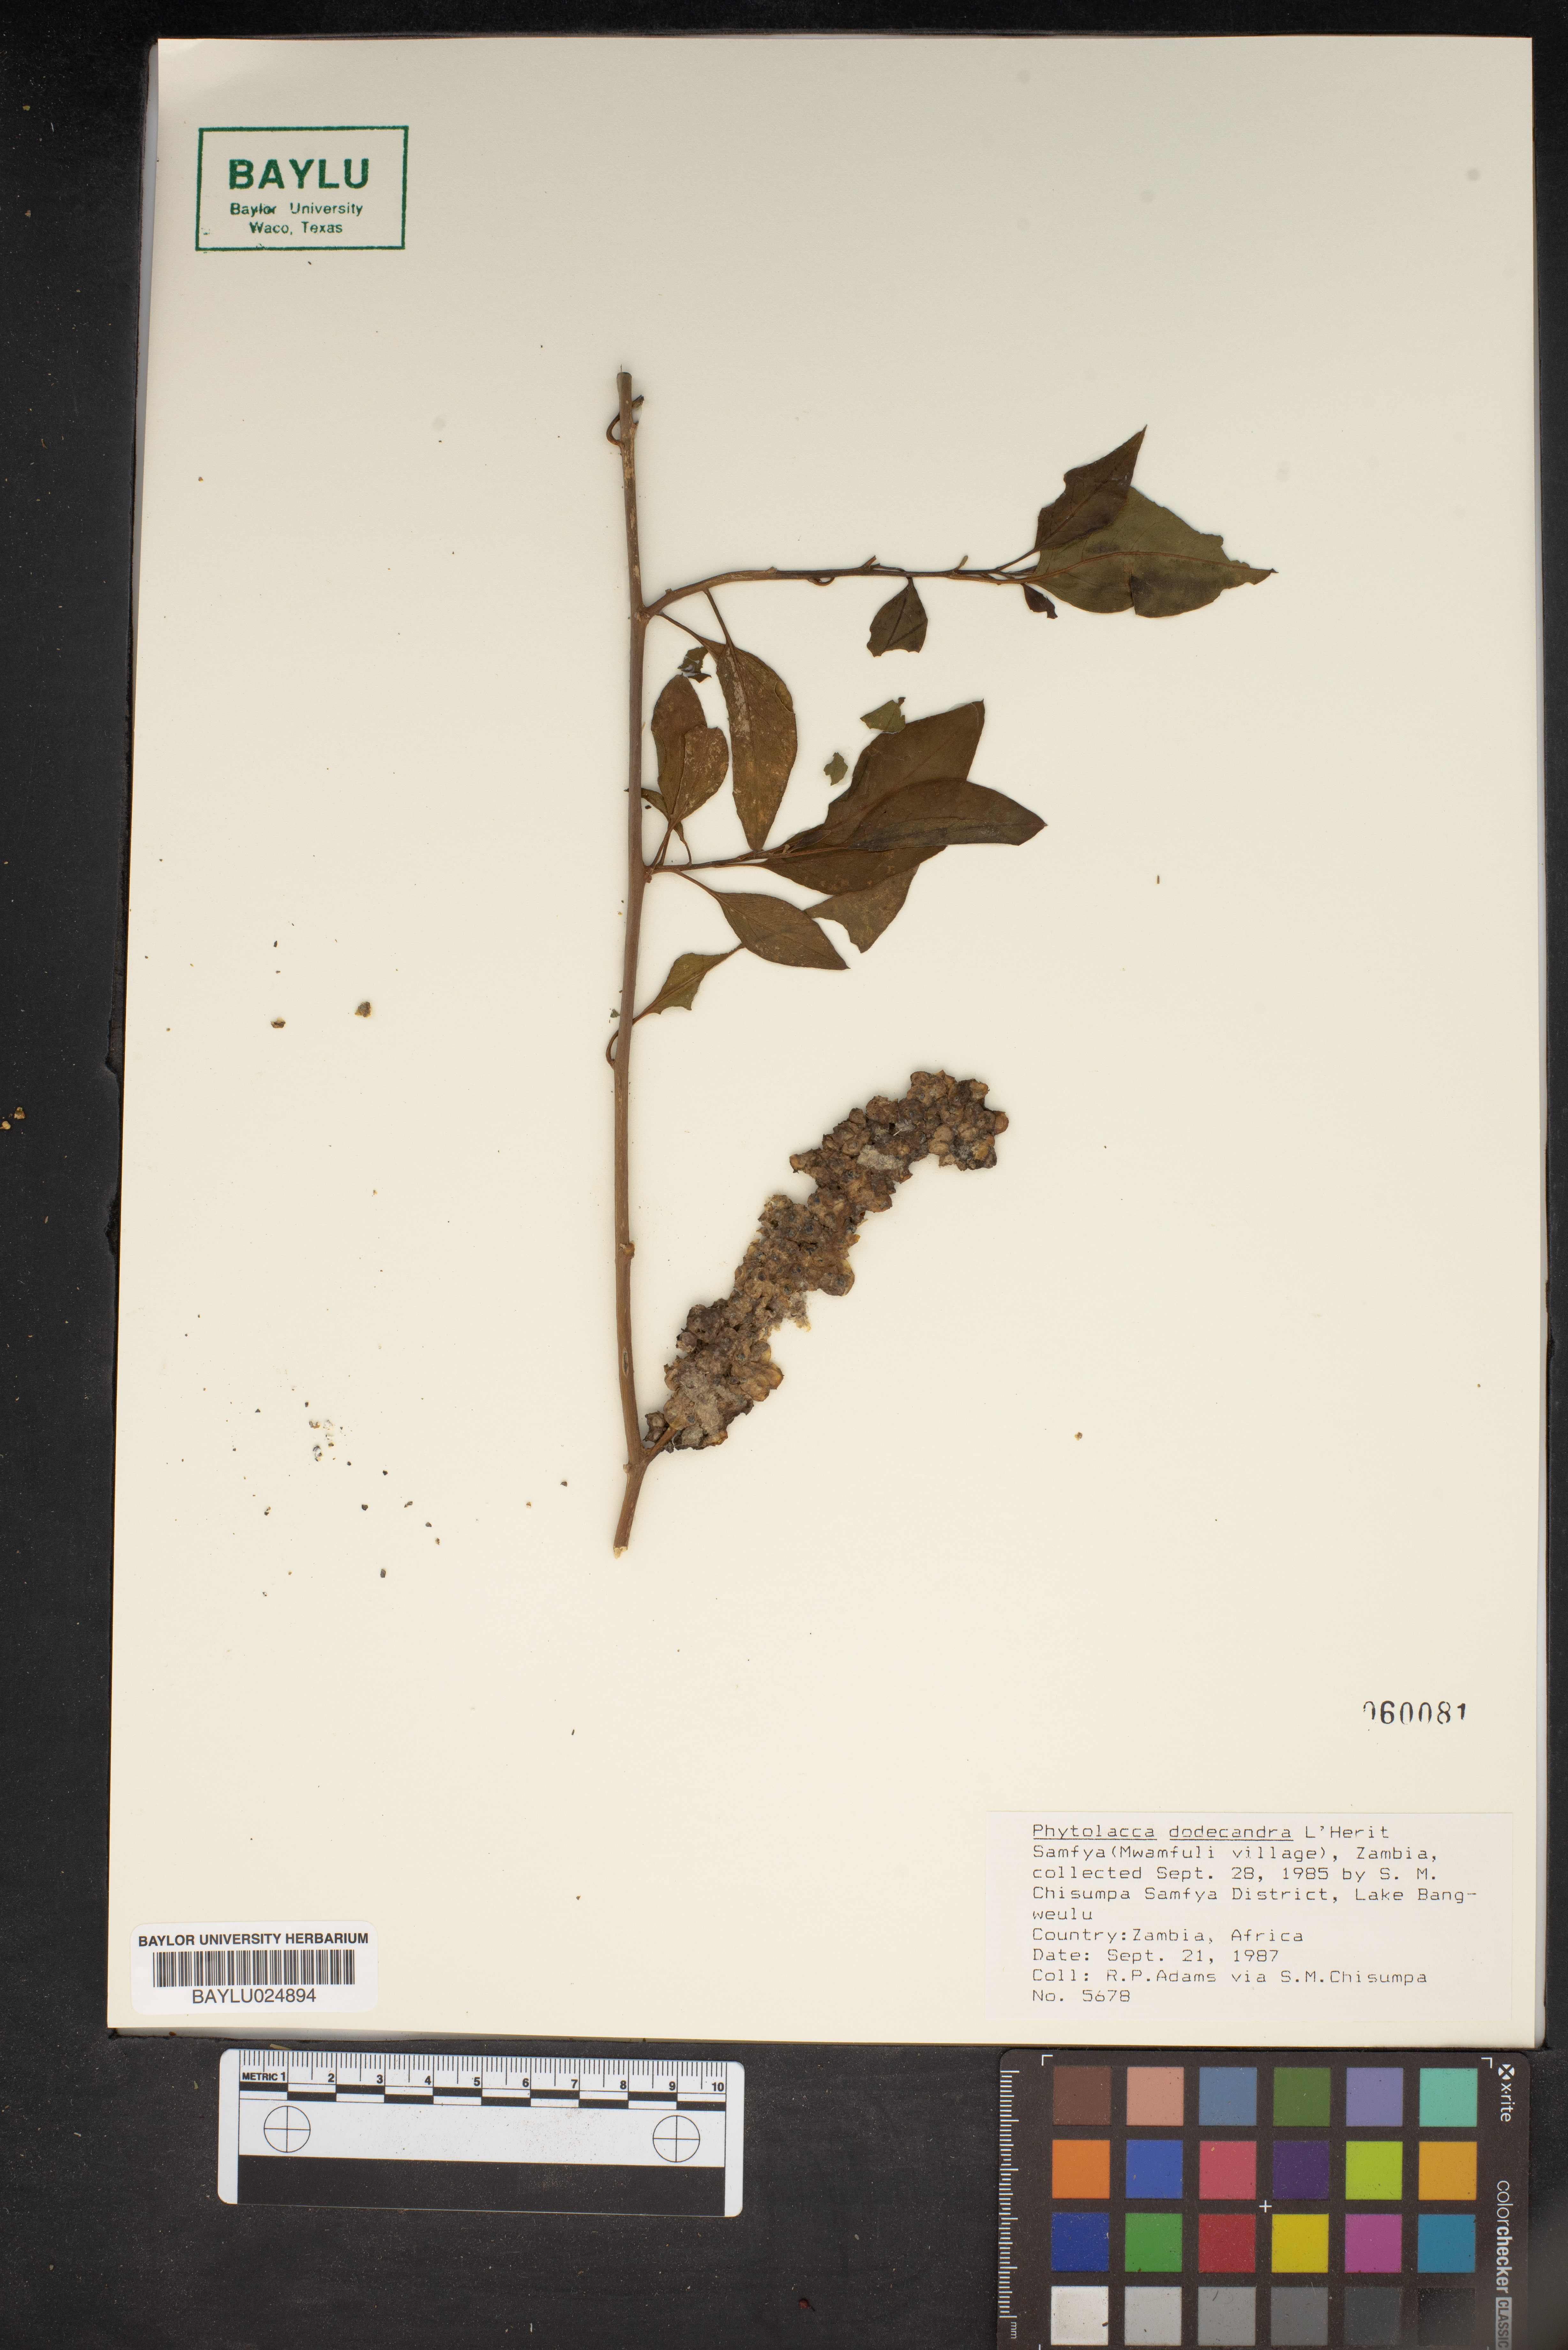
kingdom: Plantae
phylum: Tracheophyta
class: Magnoliopsida
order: Caryophyllales
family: Phytolaccaceae
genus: Phytolacca
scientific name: Phytolacca dodecandra
